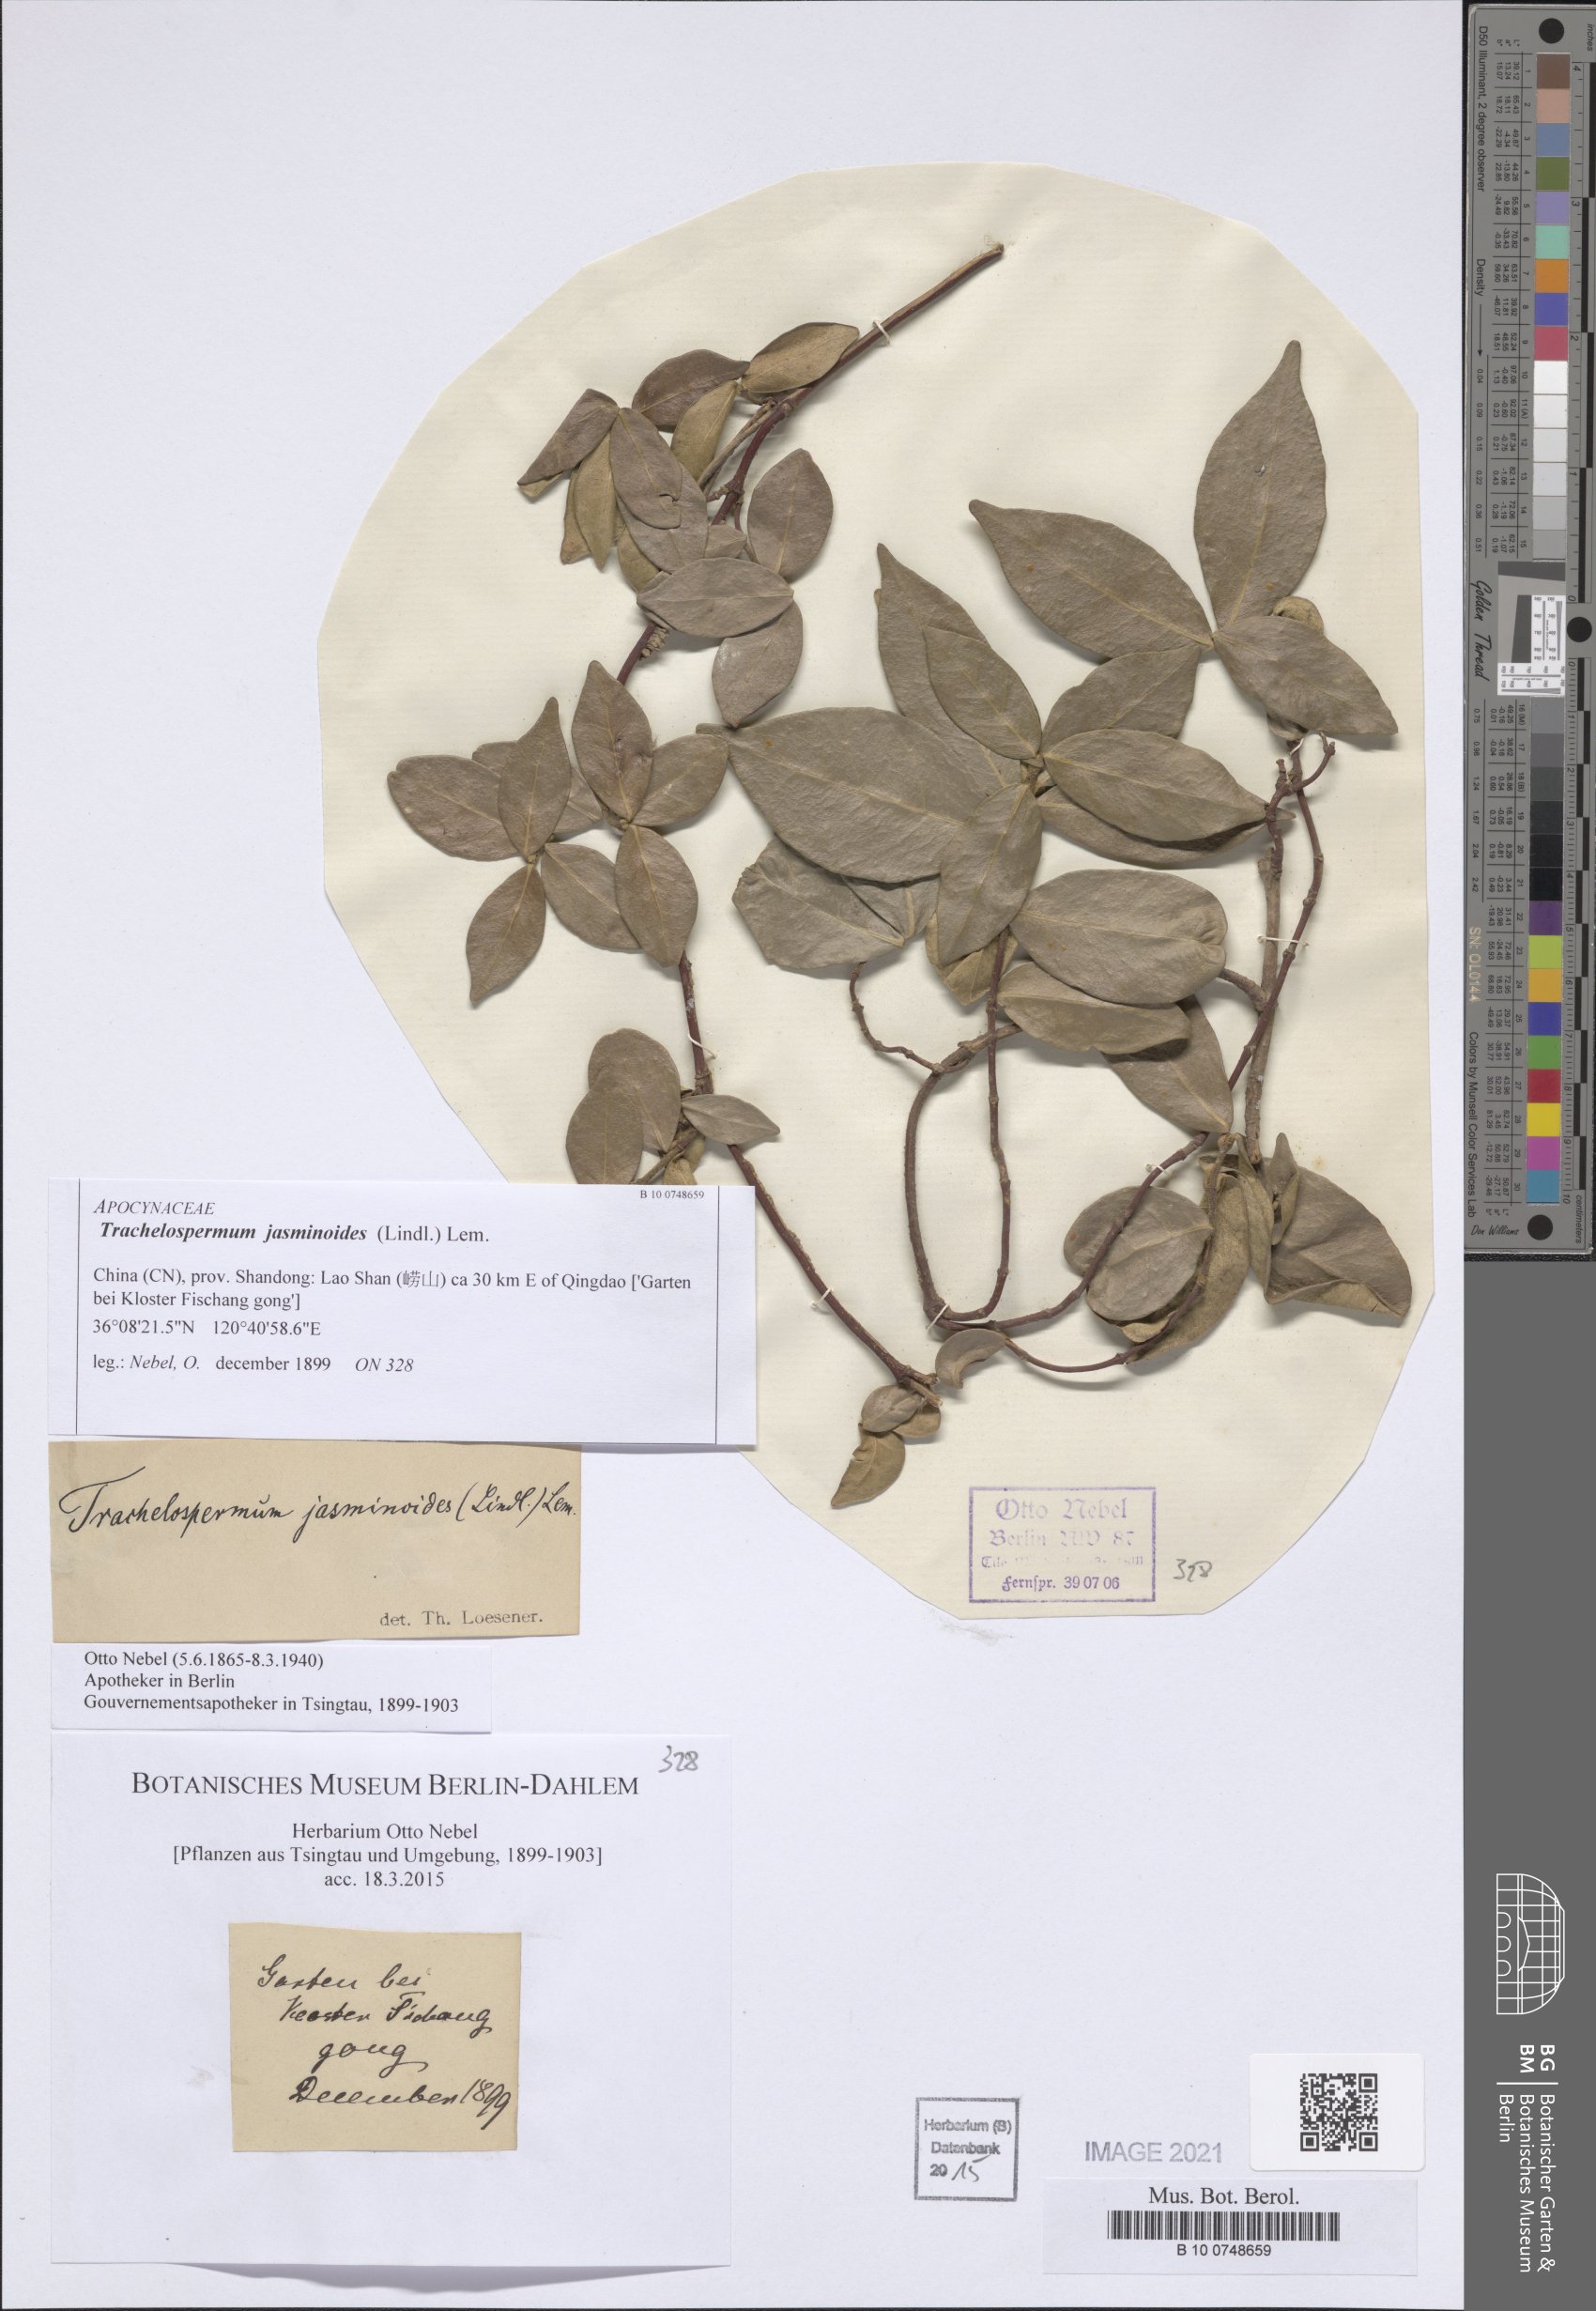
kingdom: Plantae
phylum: Tracheophyta
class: Magnoliopsida
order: Gentianales
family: Apocynaceae
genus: Trachelospermum
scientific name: Trachelospermum jasminoides
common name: Confederate jasmine
